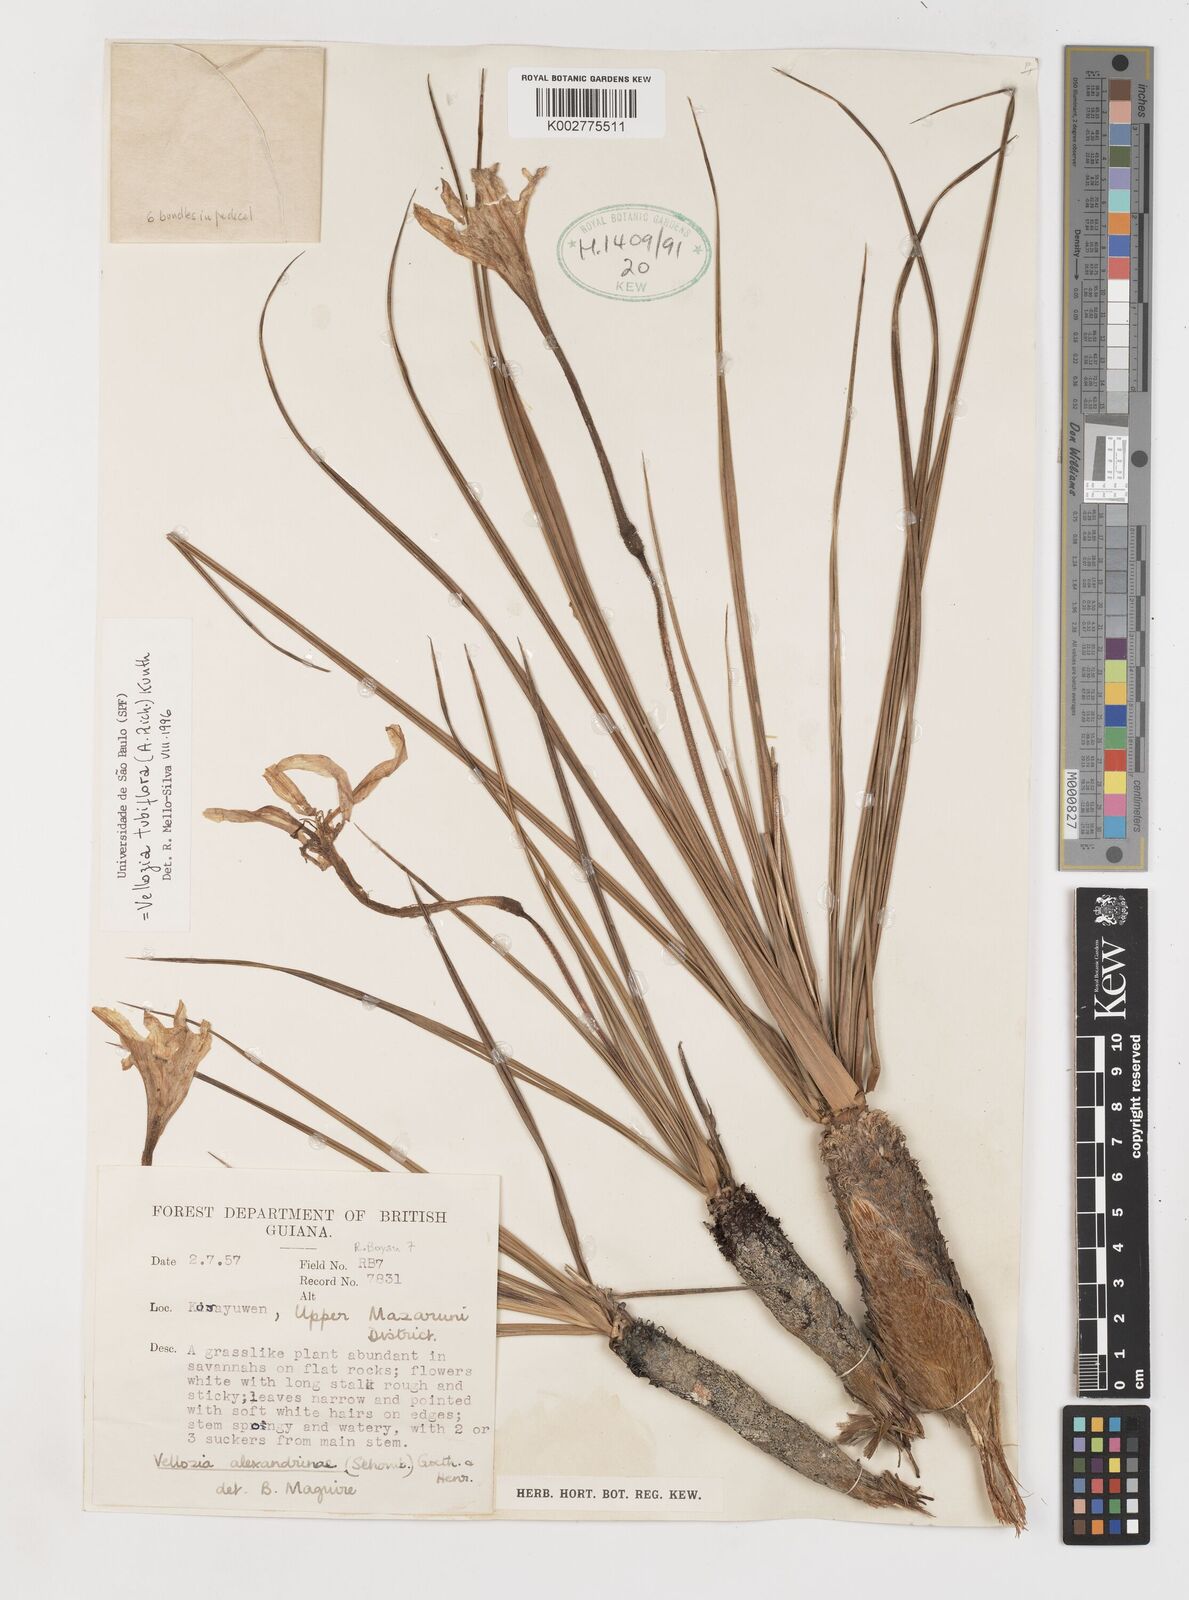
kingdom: Plantae
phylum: Tracheophyta
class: Liliopsida
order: Pandanales
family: Velloziaceae
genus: Vellozia
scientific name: Vellozia tubiflora
